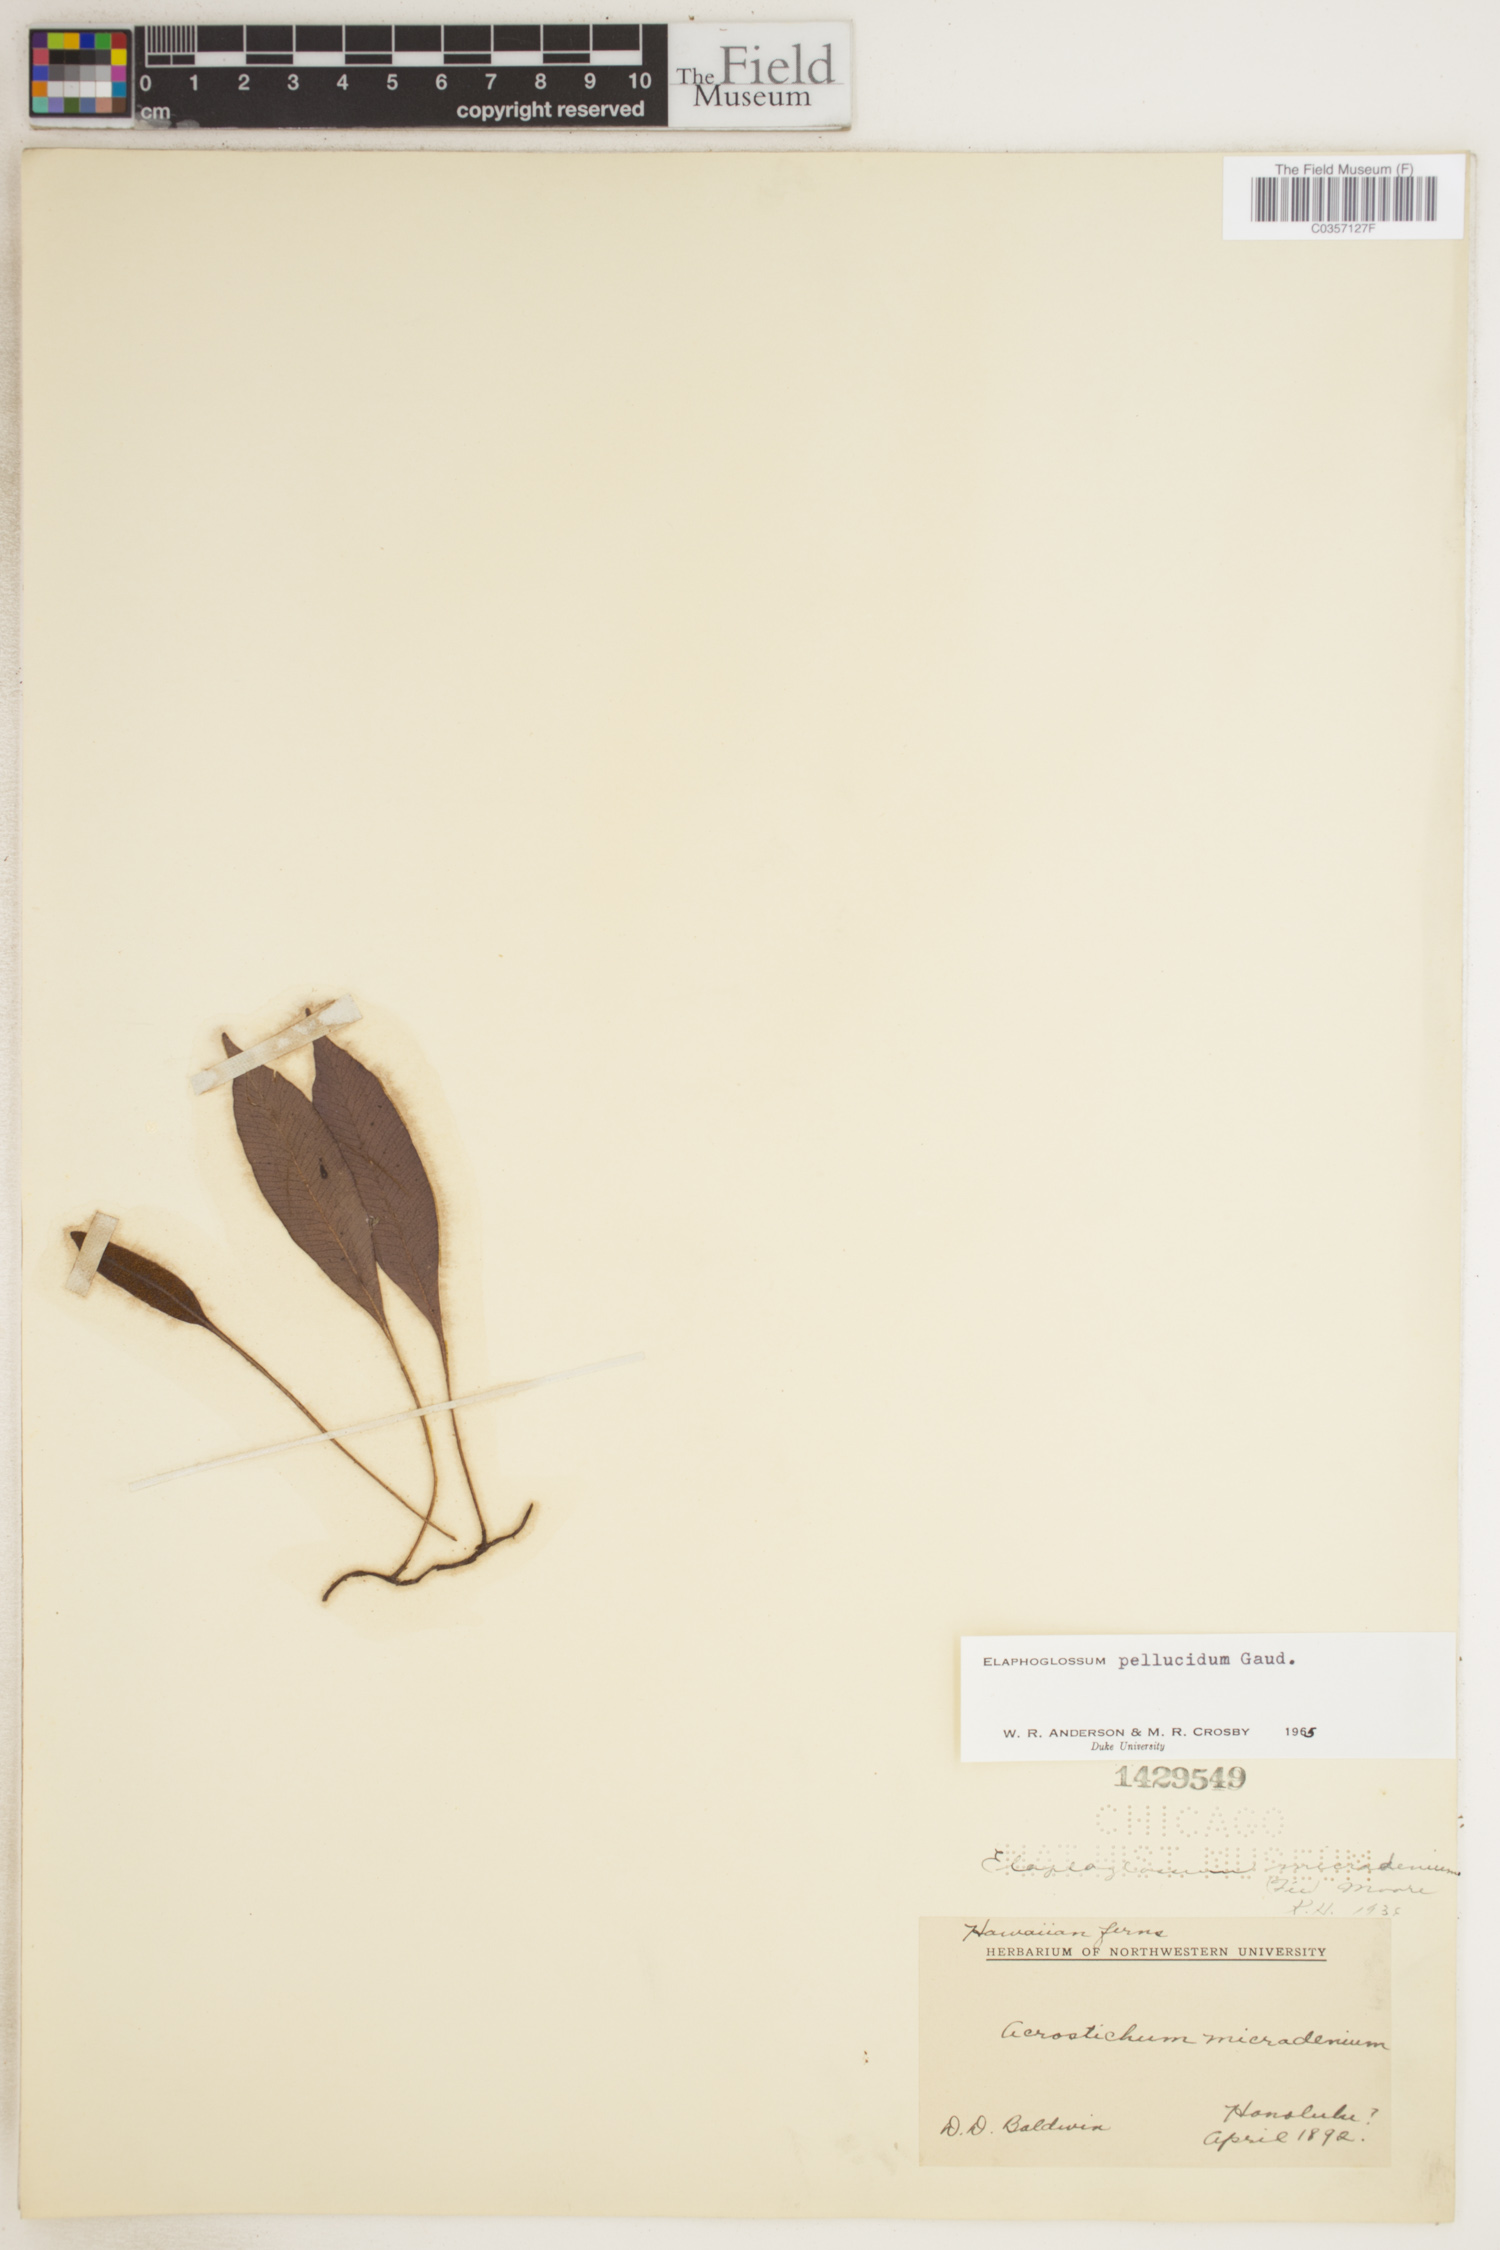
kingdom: Plantae
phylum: Tracheophyta
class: Polypodiopsida
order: Polypodiales
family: Dryopteridaceae
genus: Elaphoglossum
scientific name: Elaphoglossum pellucidum
